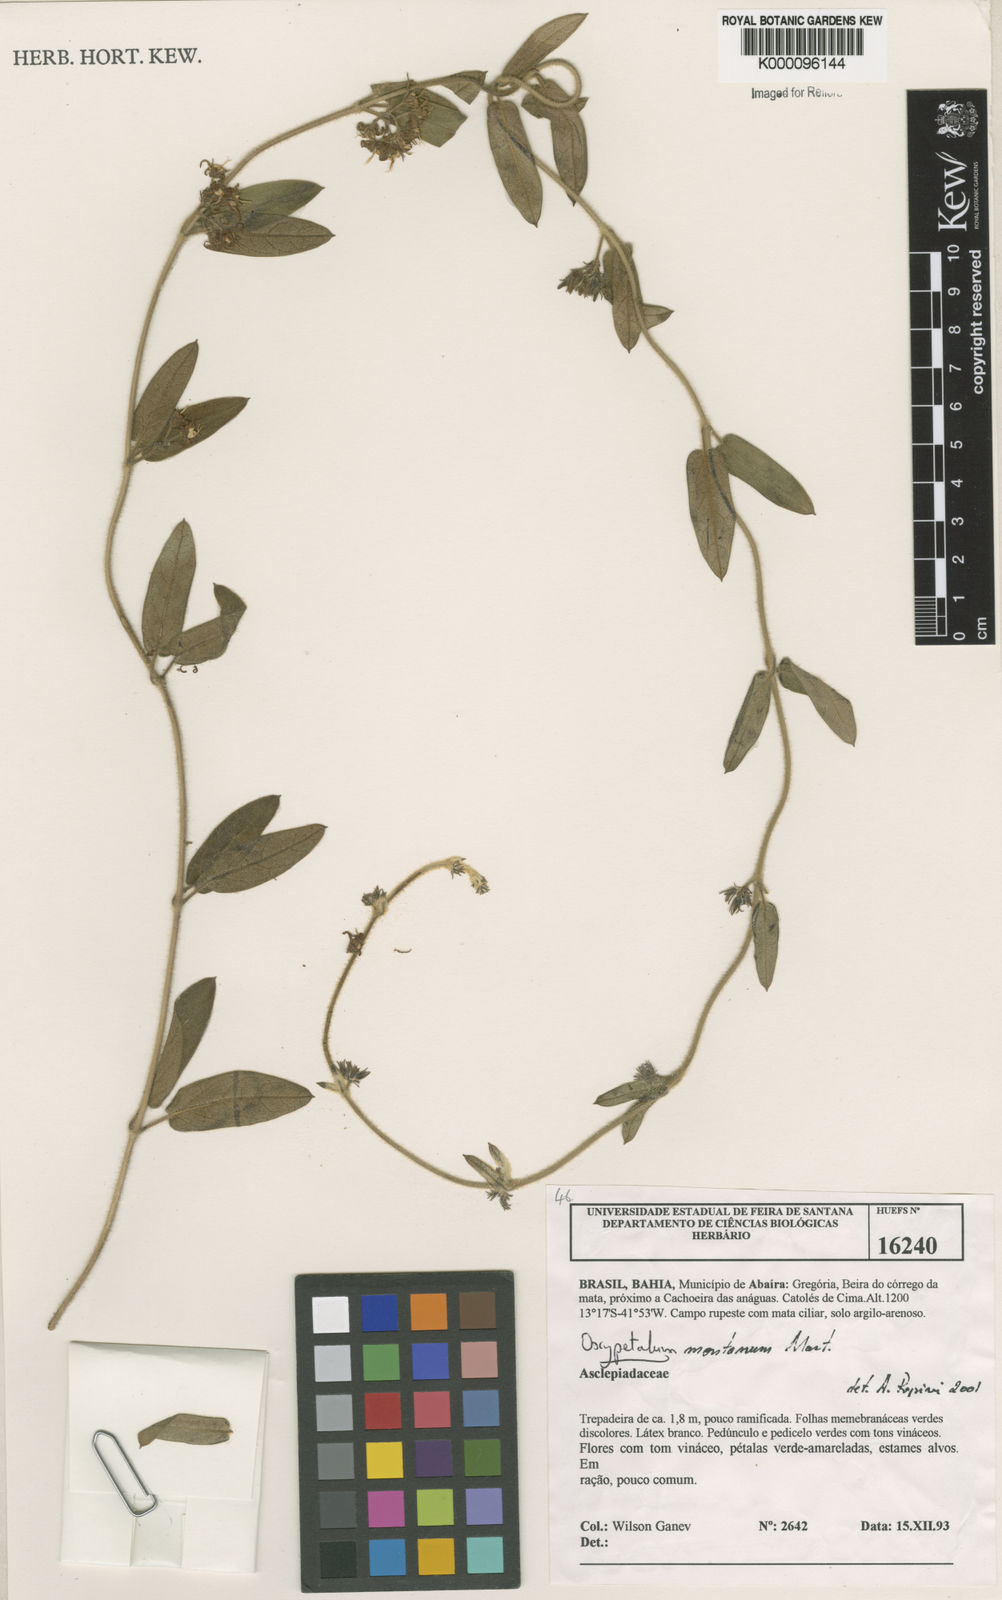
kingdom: Plantae
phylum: Tracheophyta
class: Magnoliopsida
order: Gentianales
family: Apocynaceae
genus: Oxypetalum
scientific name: Oxypetalum montanum
